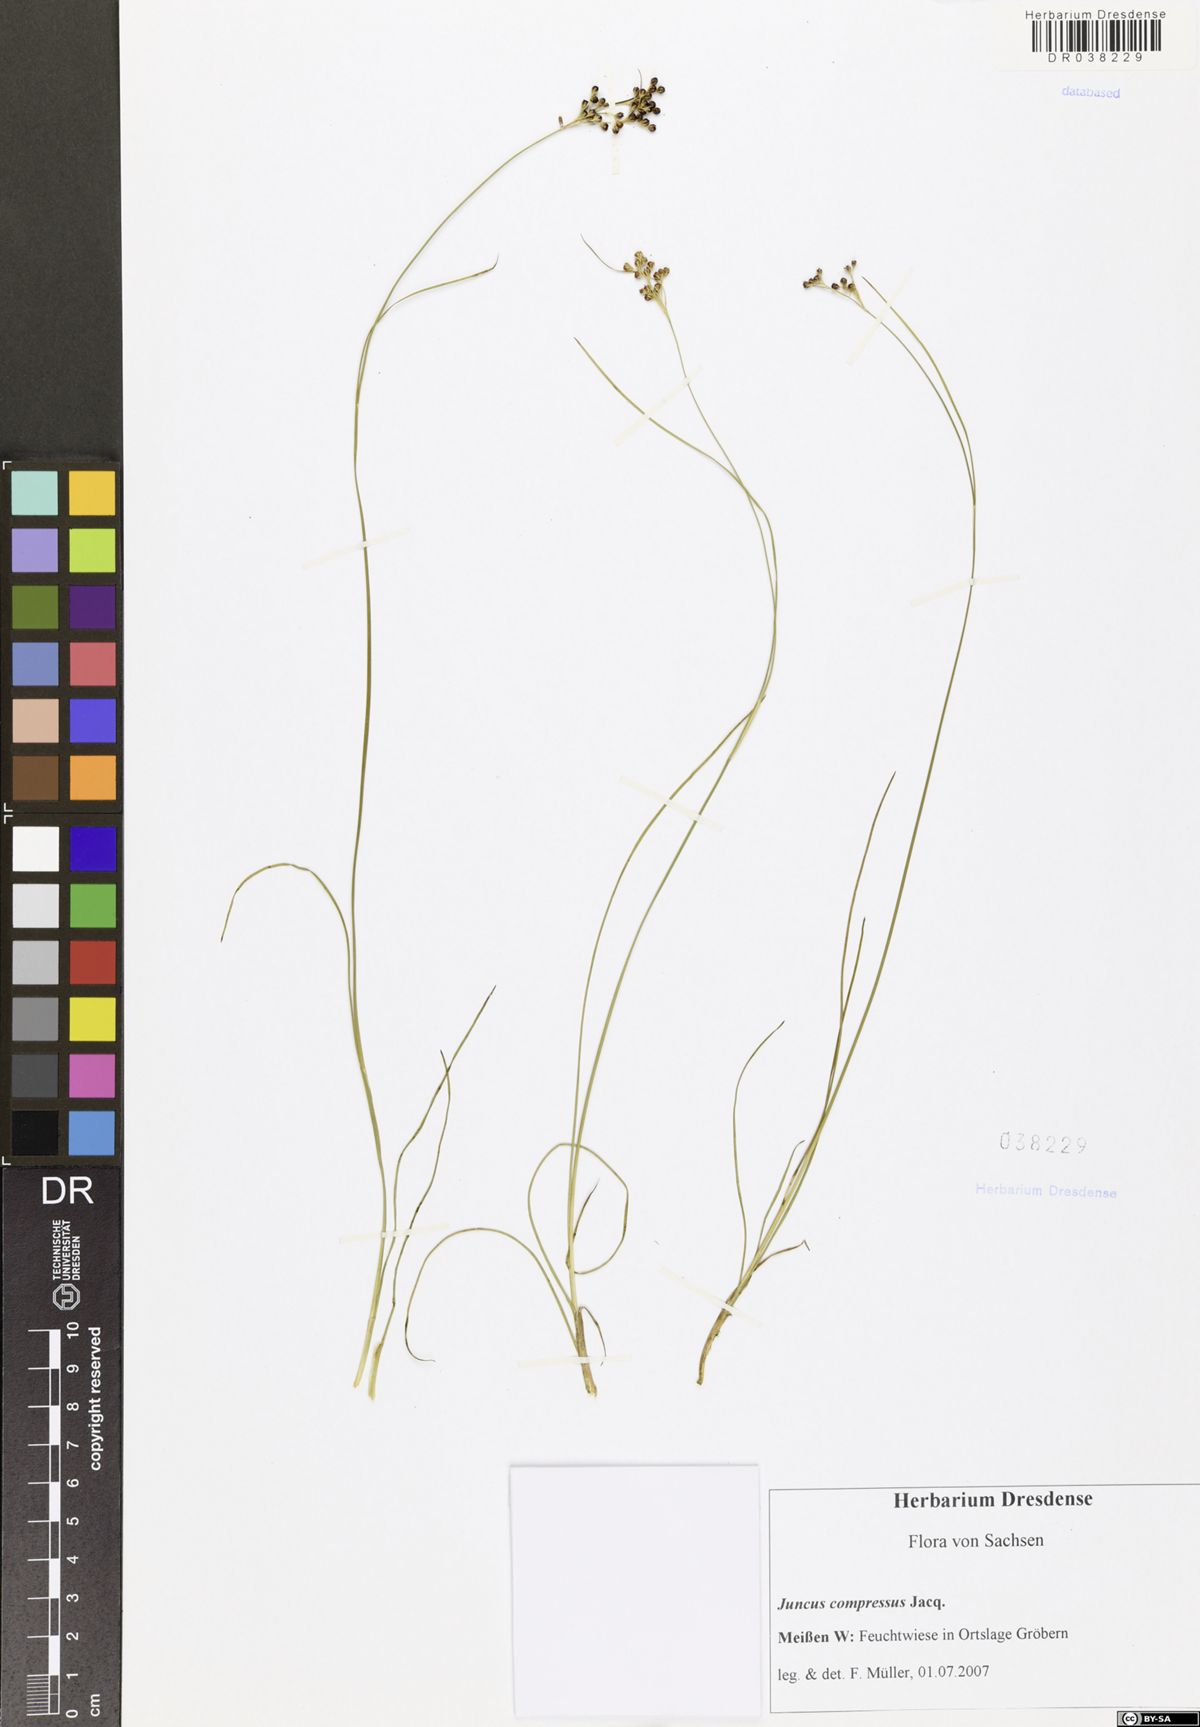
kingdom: Plantae
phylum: Tracheophyta
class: Liliopsida
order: Poales
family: Juncaceae
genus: Juncus
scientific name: Juncus compressus
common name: Round-fruited rush
